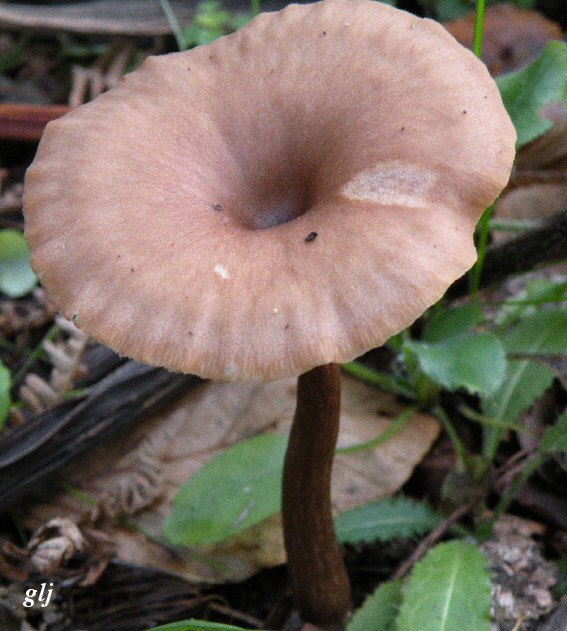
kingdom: Fungi
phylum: Basidiomycota
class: Agaricomycetes
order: Agaricales
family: Pseudoclitocybaceae
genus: Pseudoclitocybe
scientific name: Pseudoclitocybe cyathiformis
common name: almindelig bægertragthat
